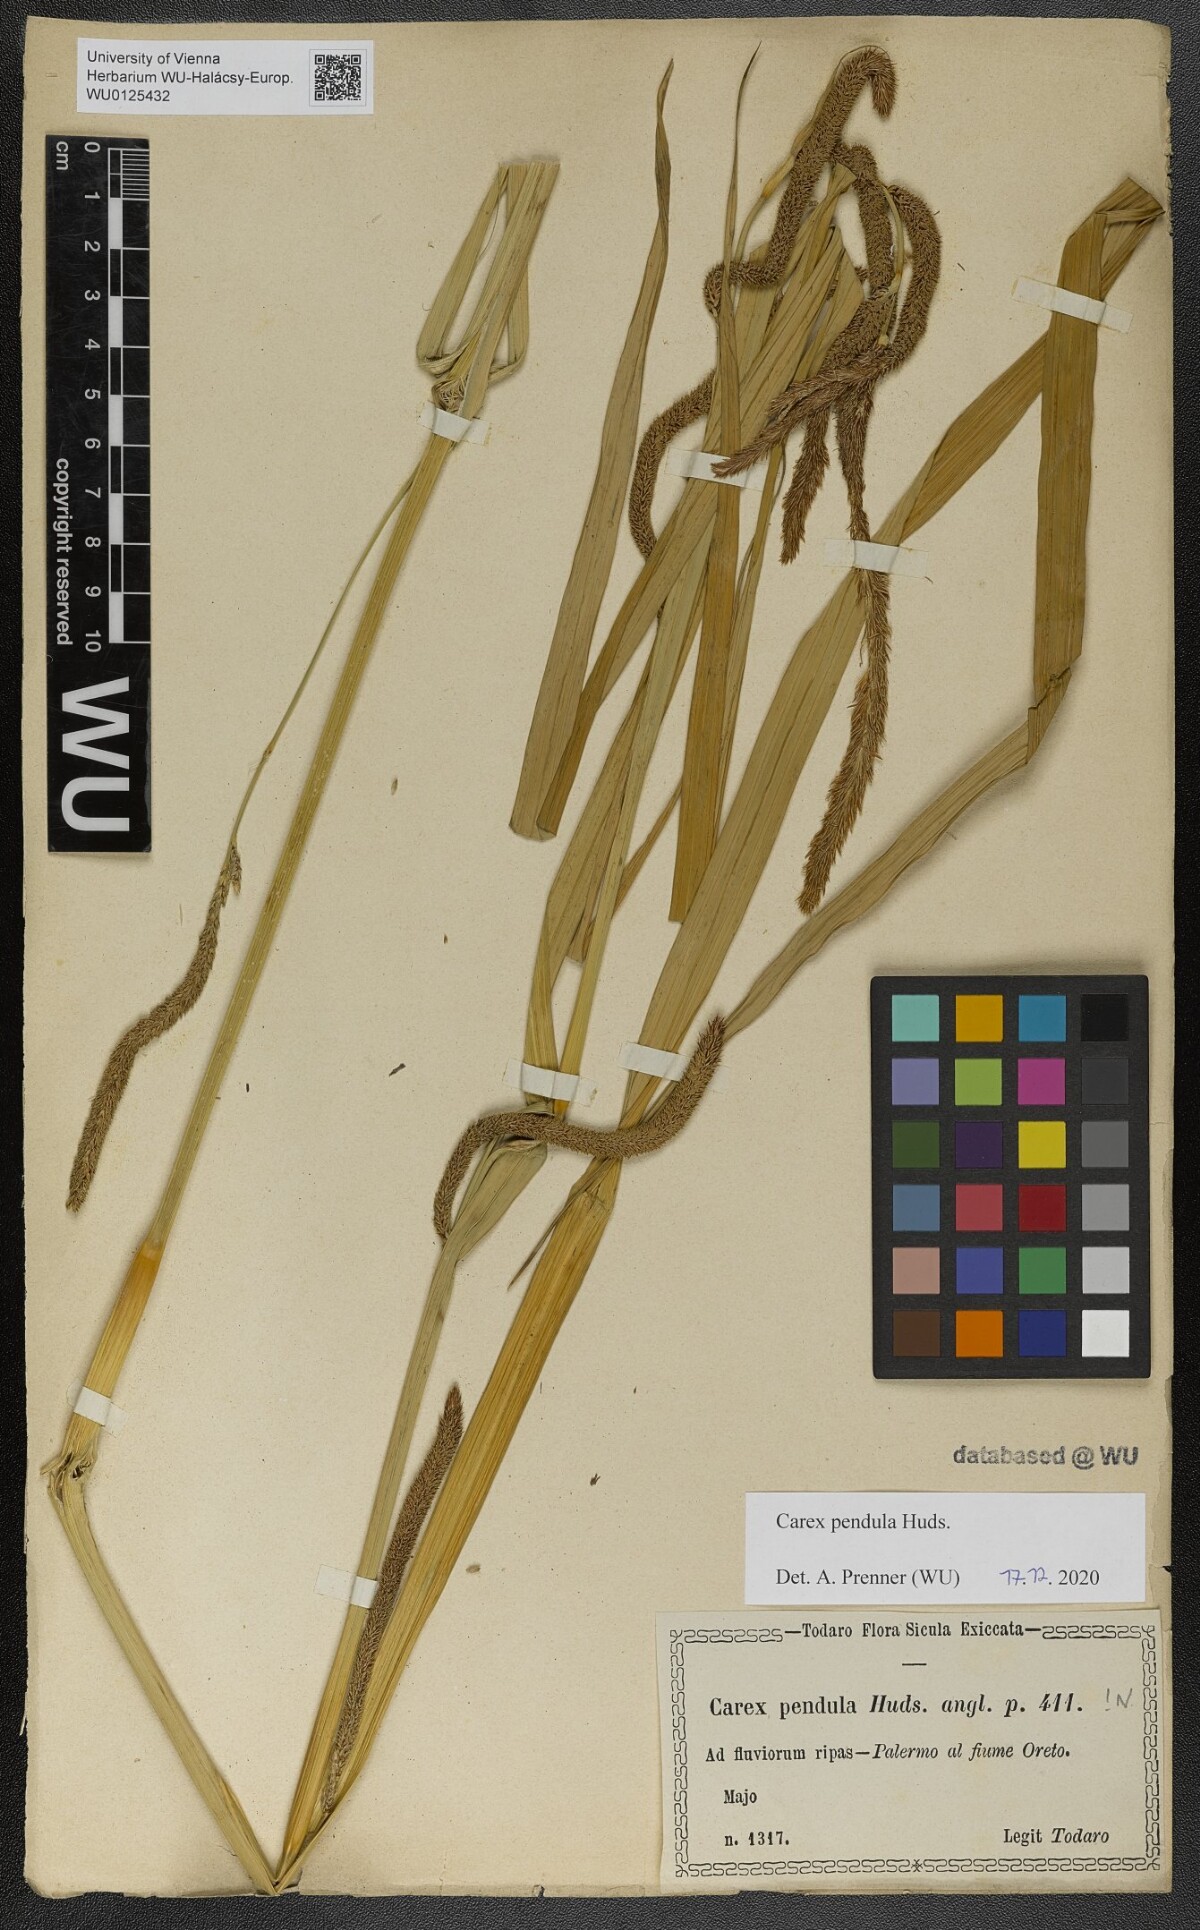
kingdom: Plantae
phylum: Tracheophyta
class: Liliopsida
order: Poales
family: Cyperaceae
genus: Carex
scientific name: Carex pendula
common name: Pendulous sedge
